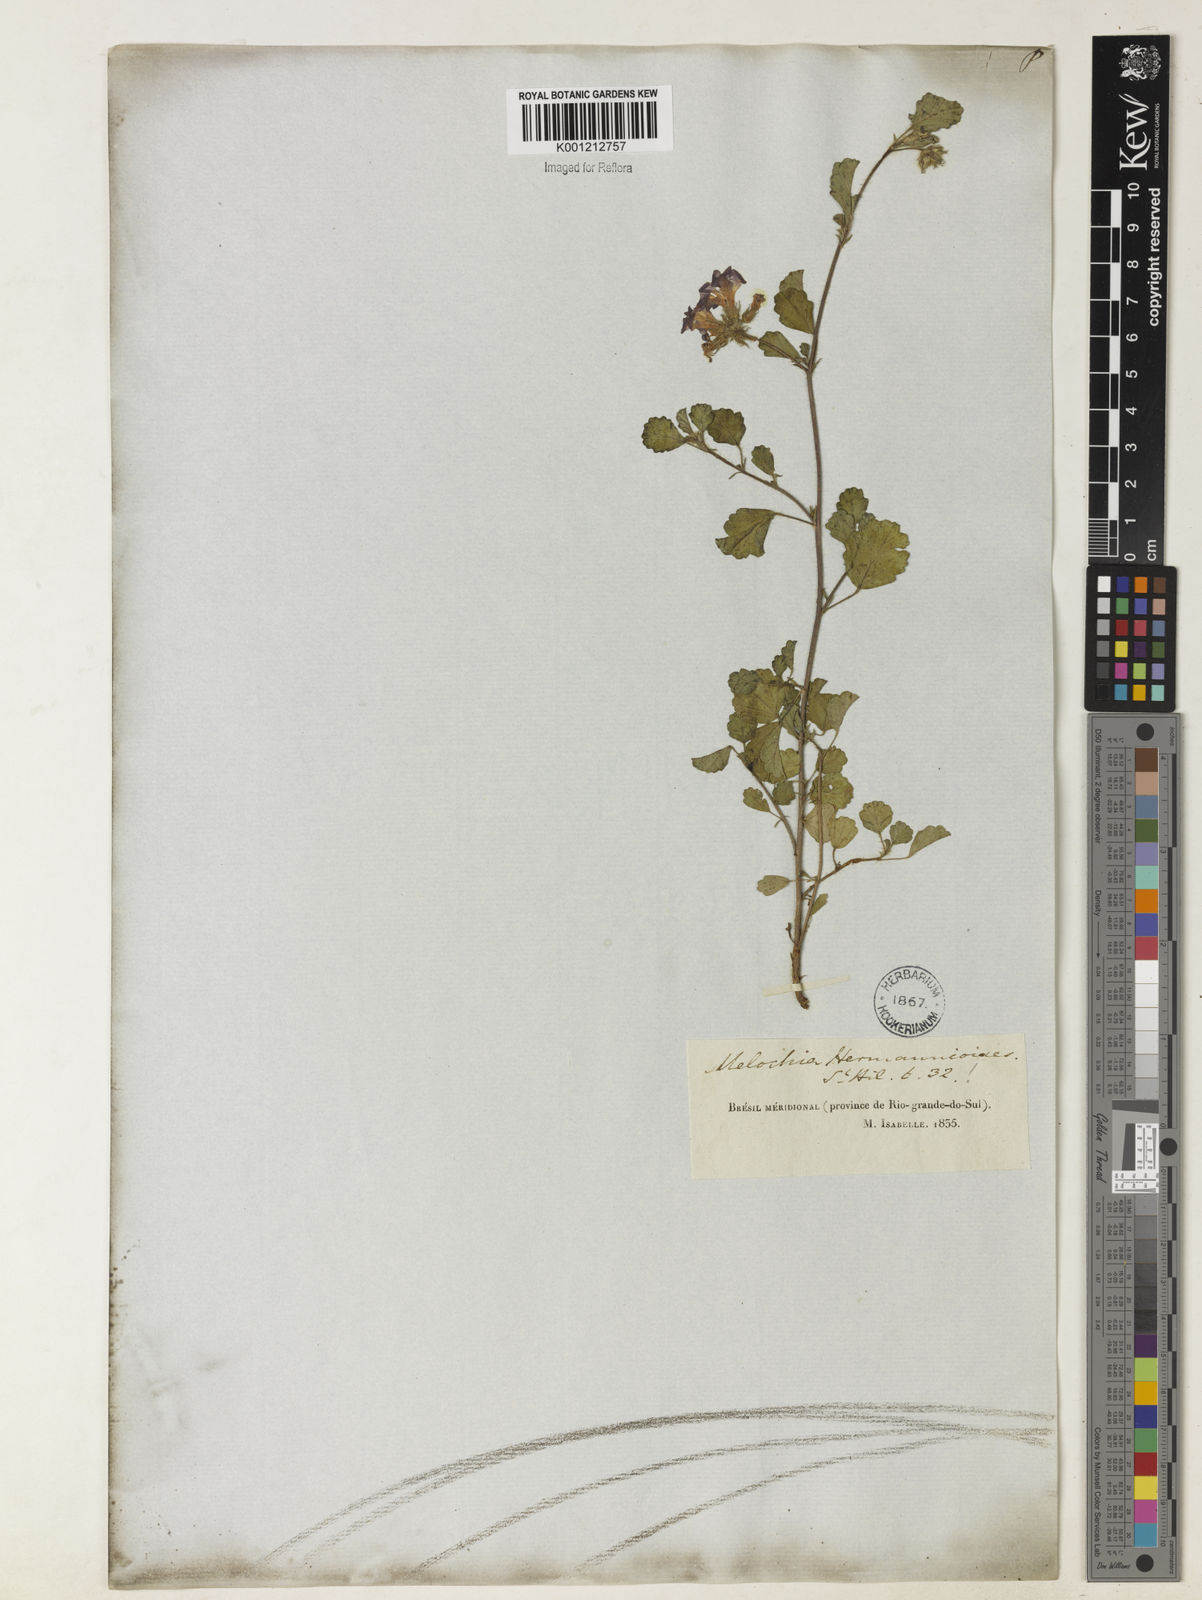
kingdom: Plantae
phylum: Tracheophyta
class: Magnoliopsida
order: Malvales
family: Malvaceae
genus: Melochia
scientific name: Melochia hermannioides
